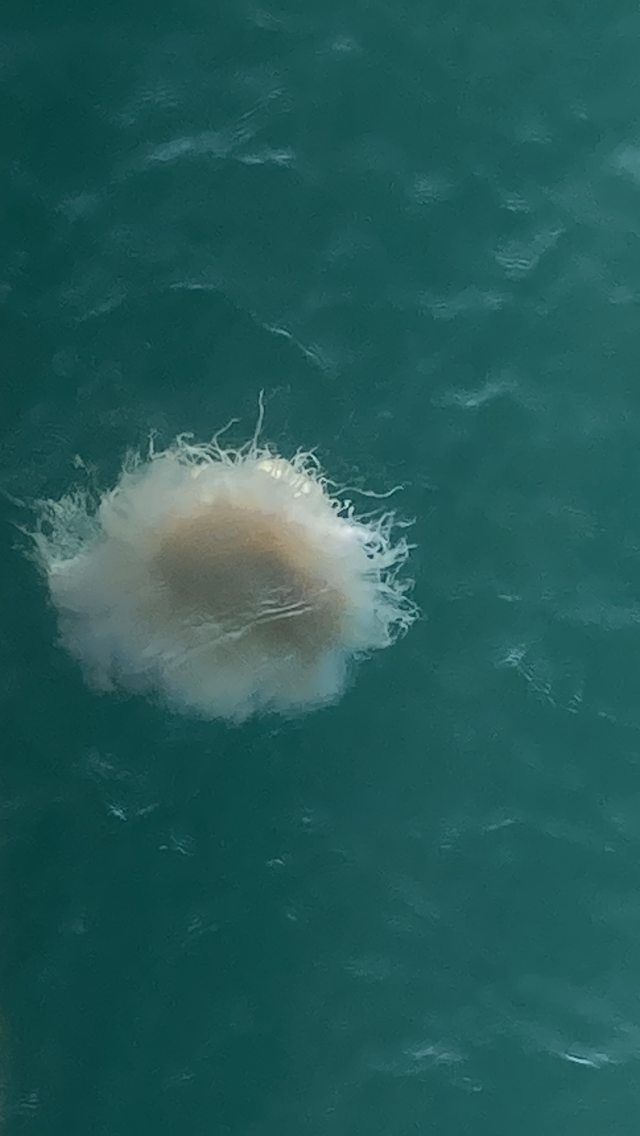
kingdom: Animalia
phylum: Cnidaria
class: Scyphozoa
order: Semaeostomeae
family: Cyaneidae
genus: Cyanea
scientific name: Cyanea nozakii
